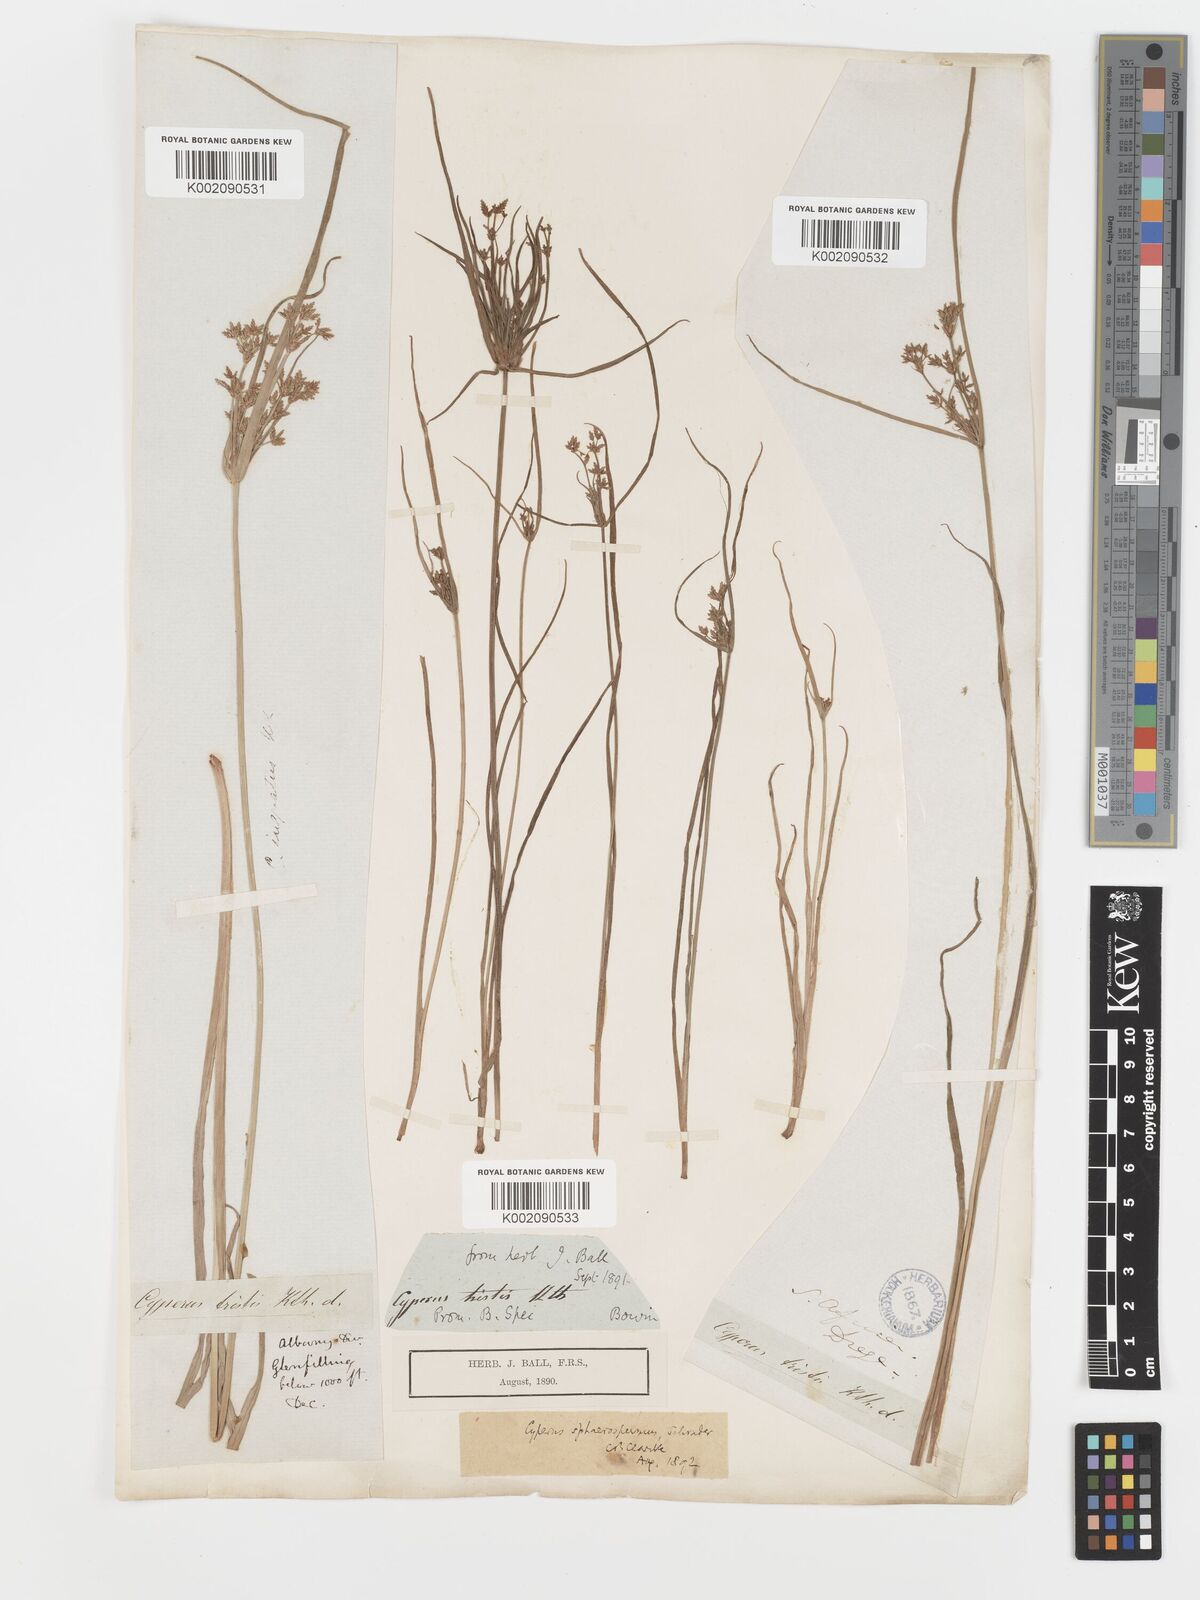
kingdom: Plantae
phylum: Tracheophyta
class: Liliopsida
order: Poales
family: Cyperaceae
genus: Cyperus
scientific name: Cyperus sphaerospermus
